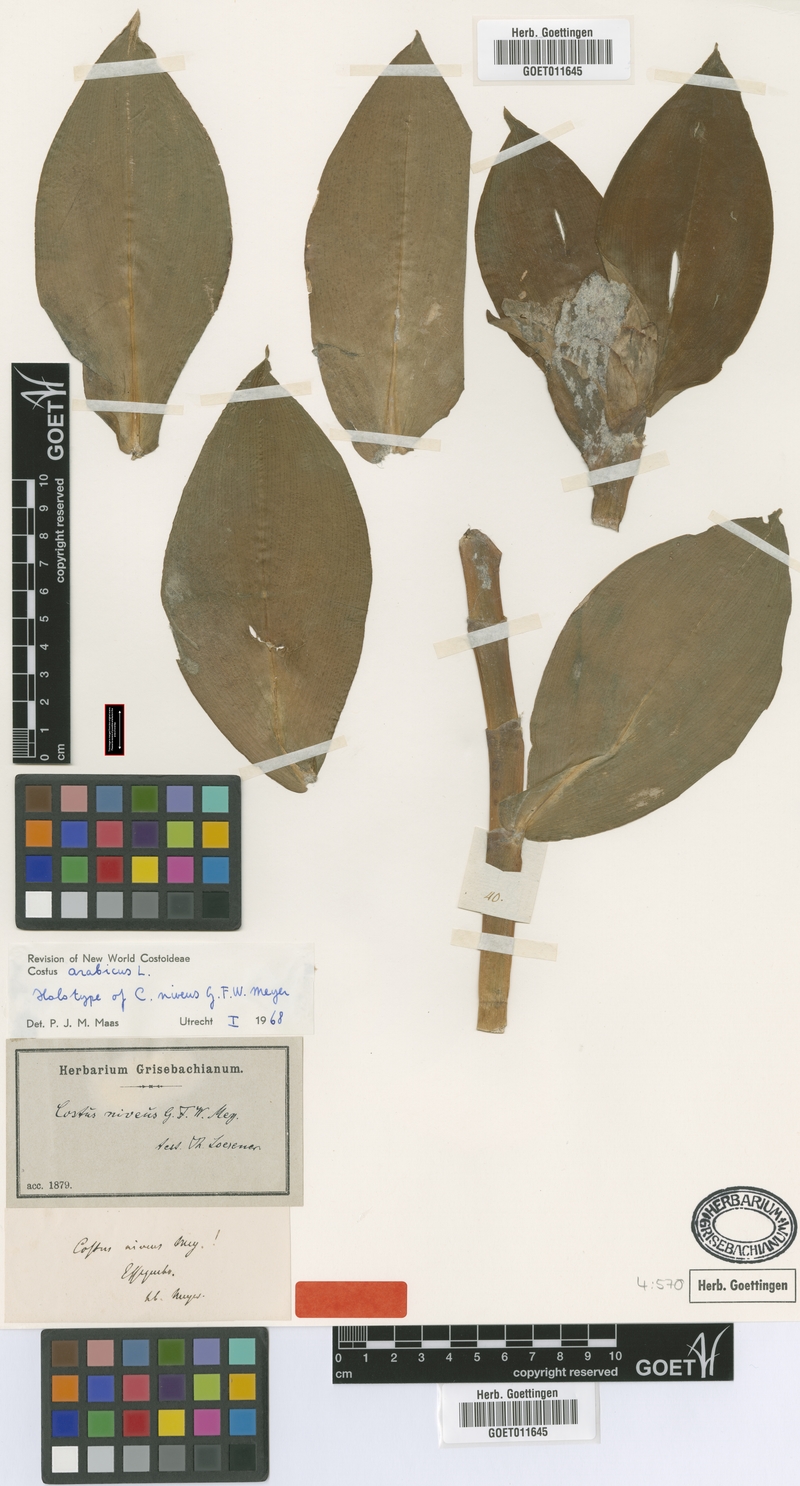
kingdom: Plantae
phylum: Tracheophyta
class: Liliopsida
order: Zingiberales
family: Costaceae
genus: Costus
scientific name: Costus arabicus
